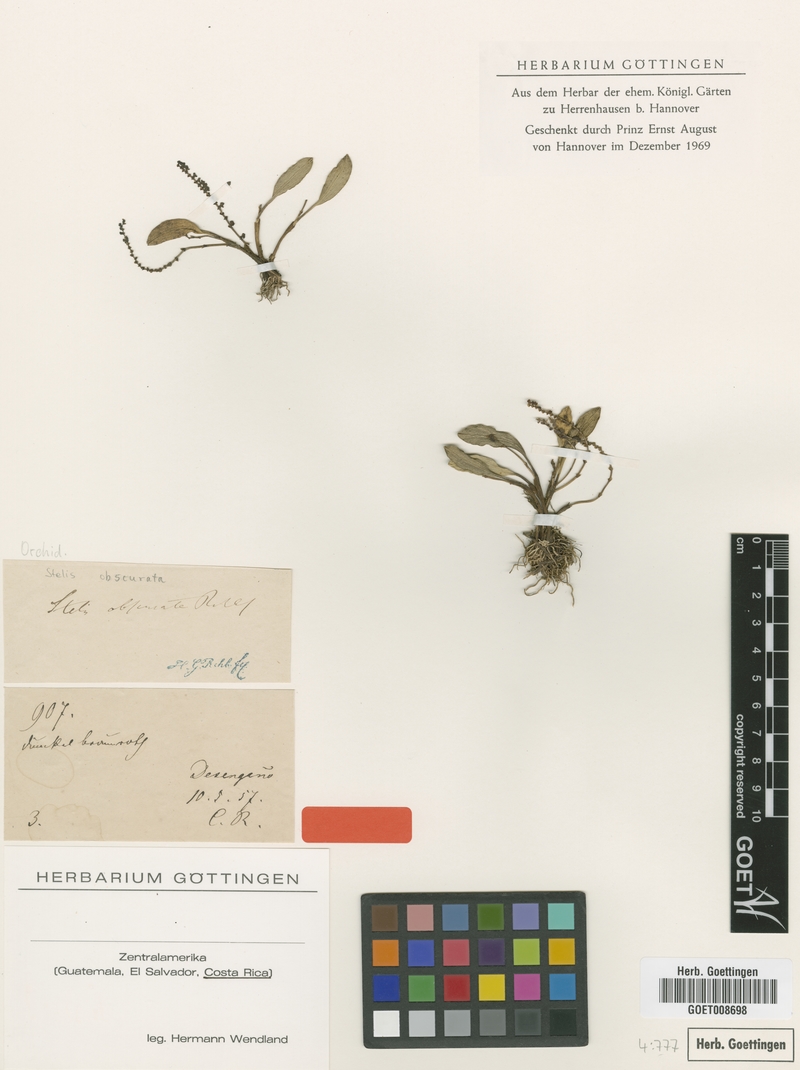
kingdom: Plantae
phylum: Tracheophyta
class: Liliopsida
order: Asparagales
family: Orchidaceae
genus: Stelis
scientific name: Stelis obscurata
